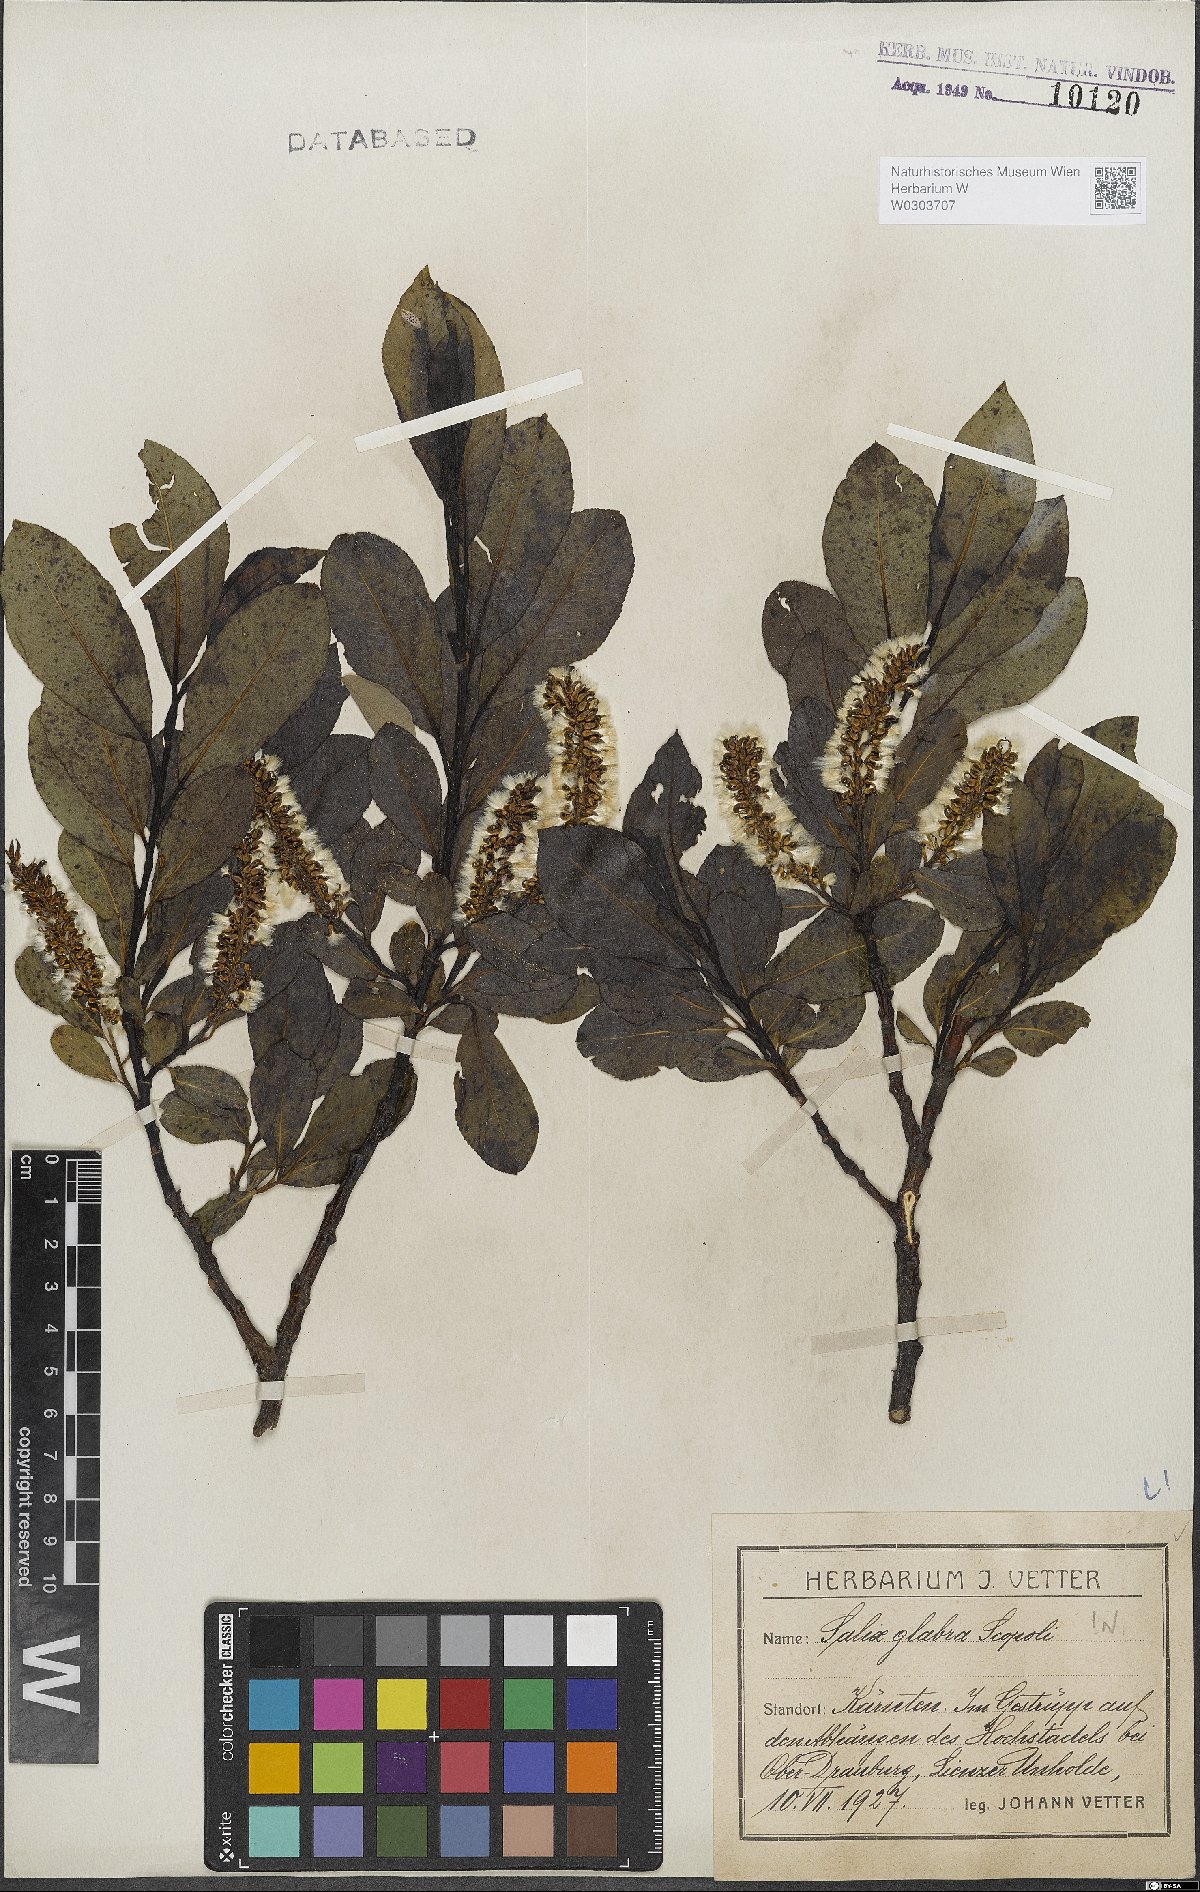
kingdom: Plantae
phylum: Tracheophyta
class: Magnoliopsida
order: Malpighiales
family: Salicaceae
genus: Salix
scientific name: Salix glabra
